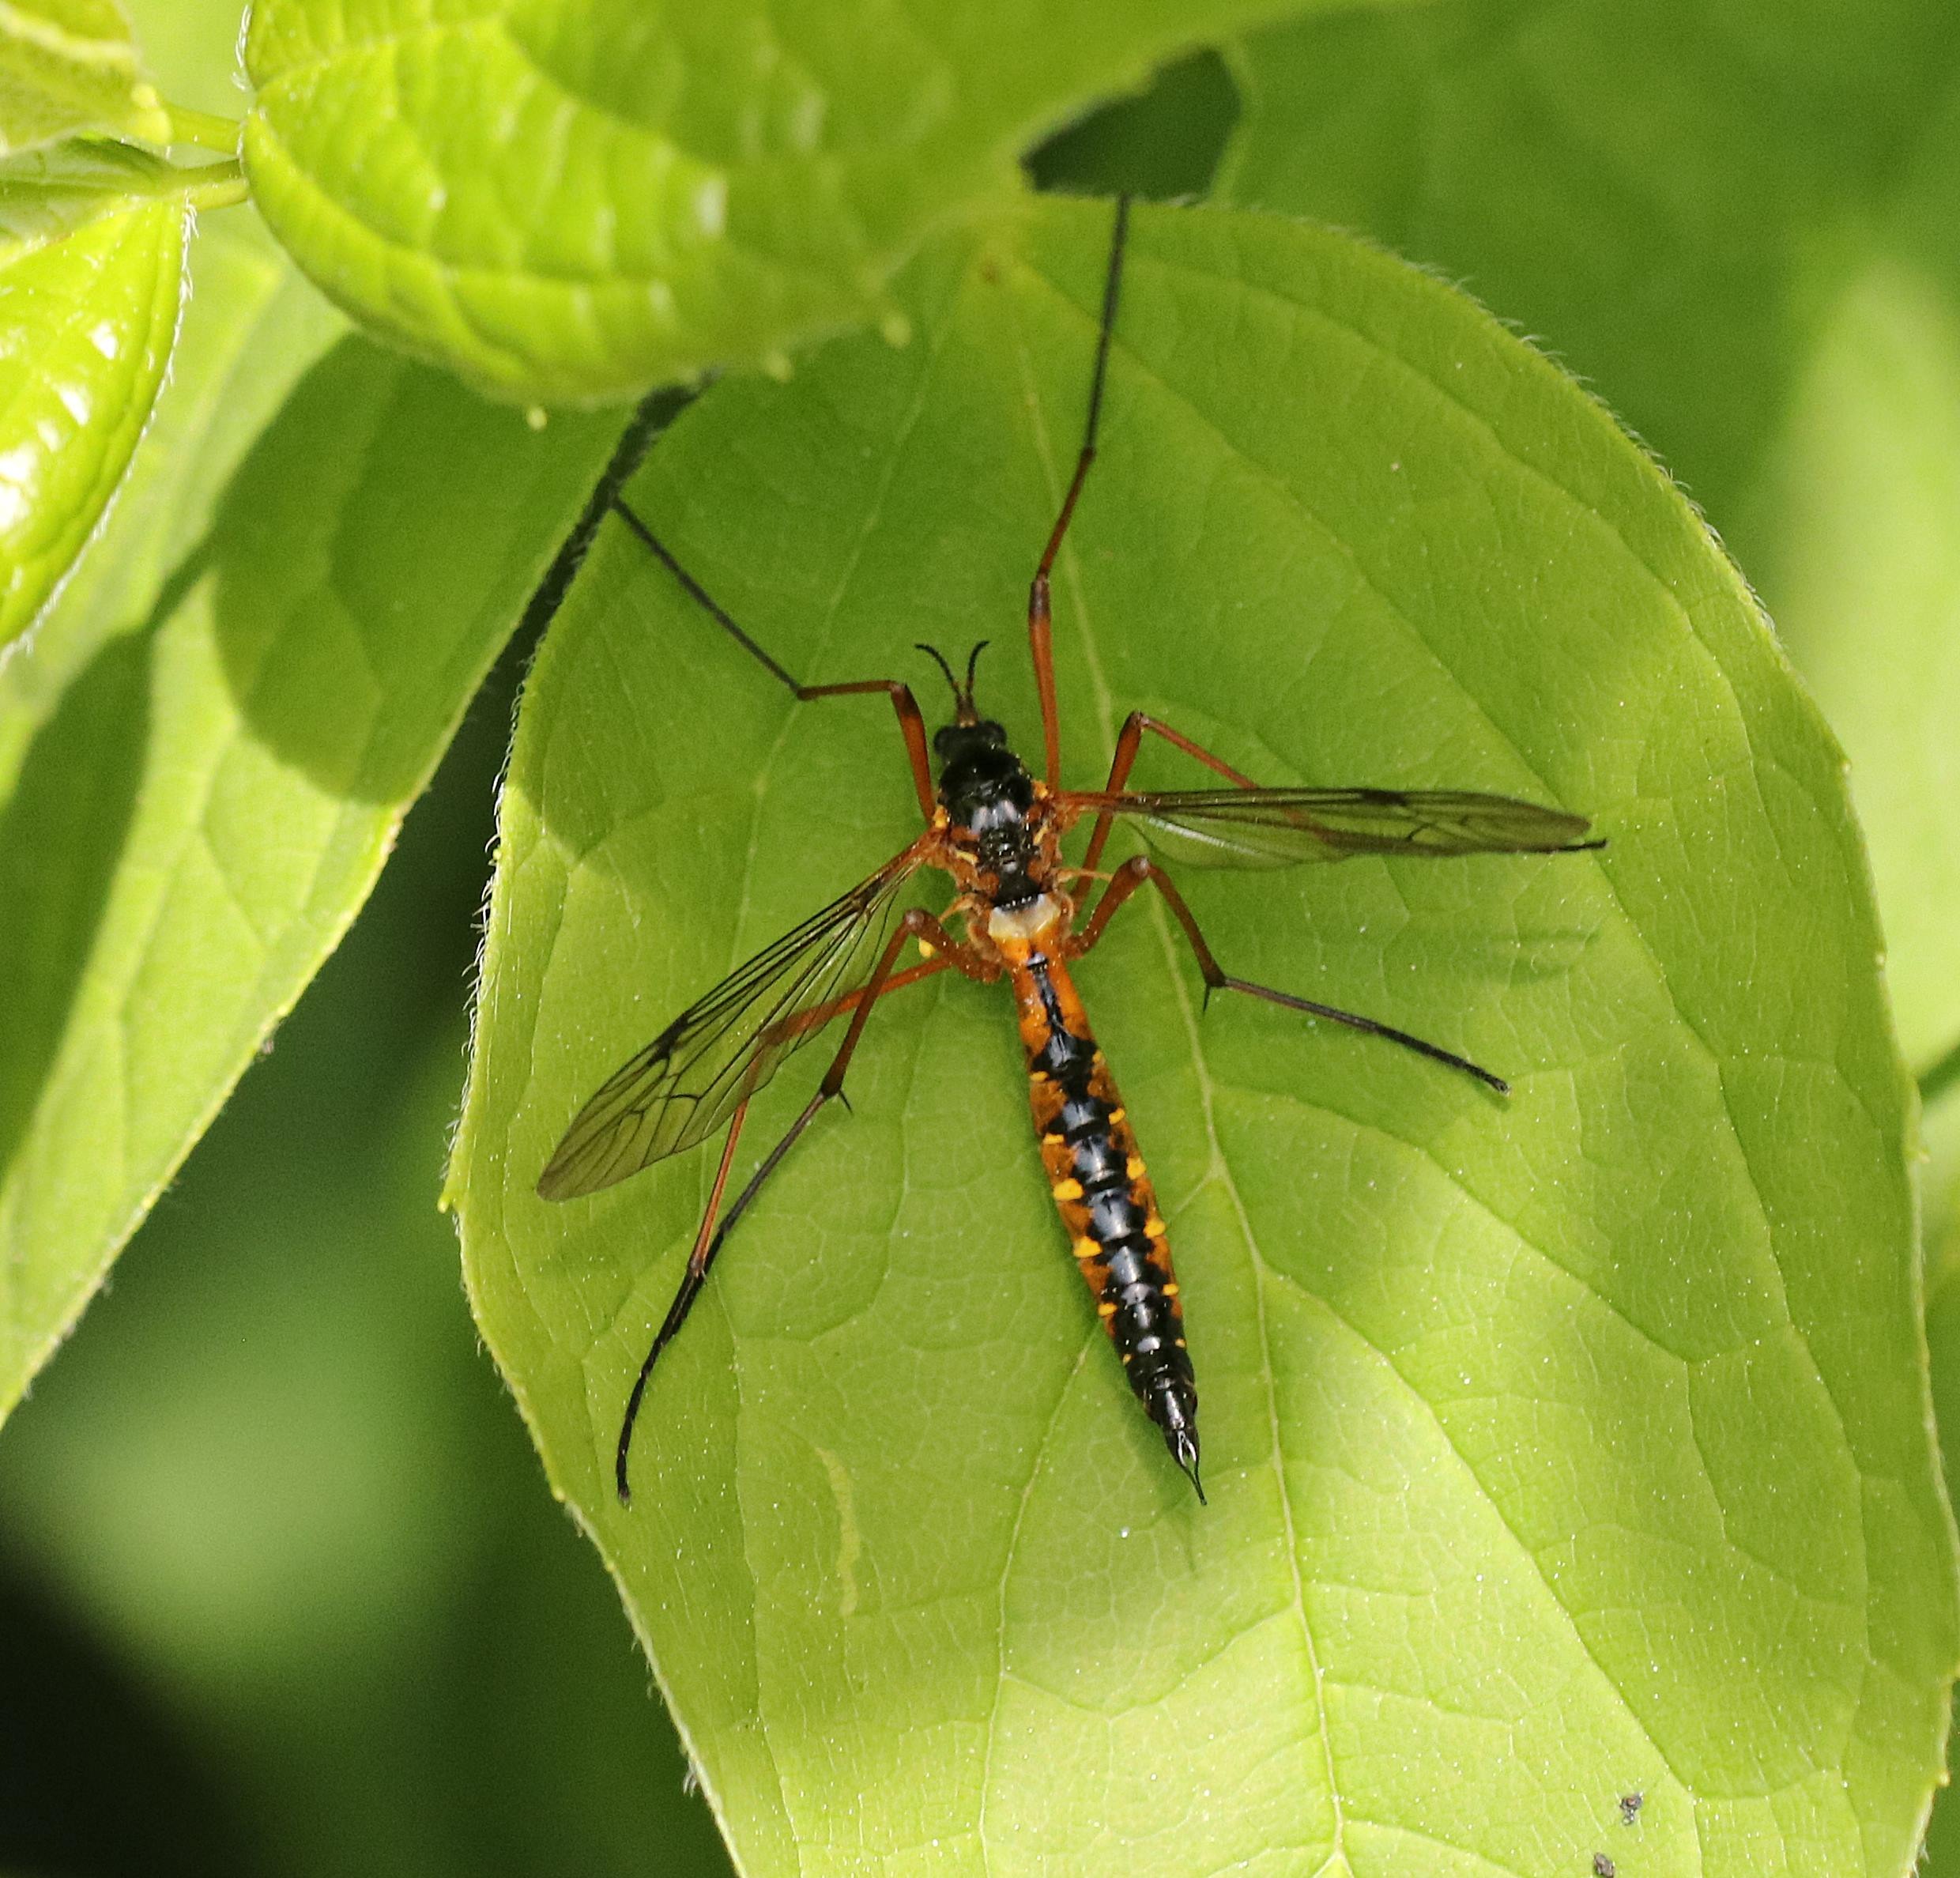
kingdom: Animalia
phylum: Arthropoda
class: Insecta
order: Diptera
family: Tipulidae
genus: Ctenophora
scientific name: Ctenophora pectinicornis
